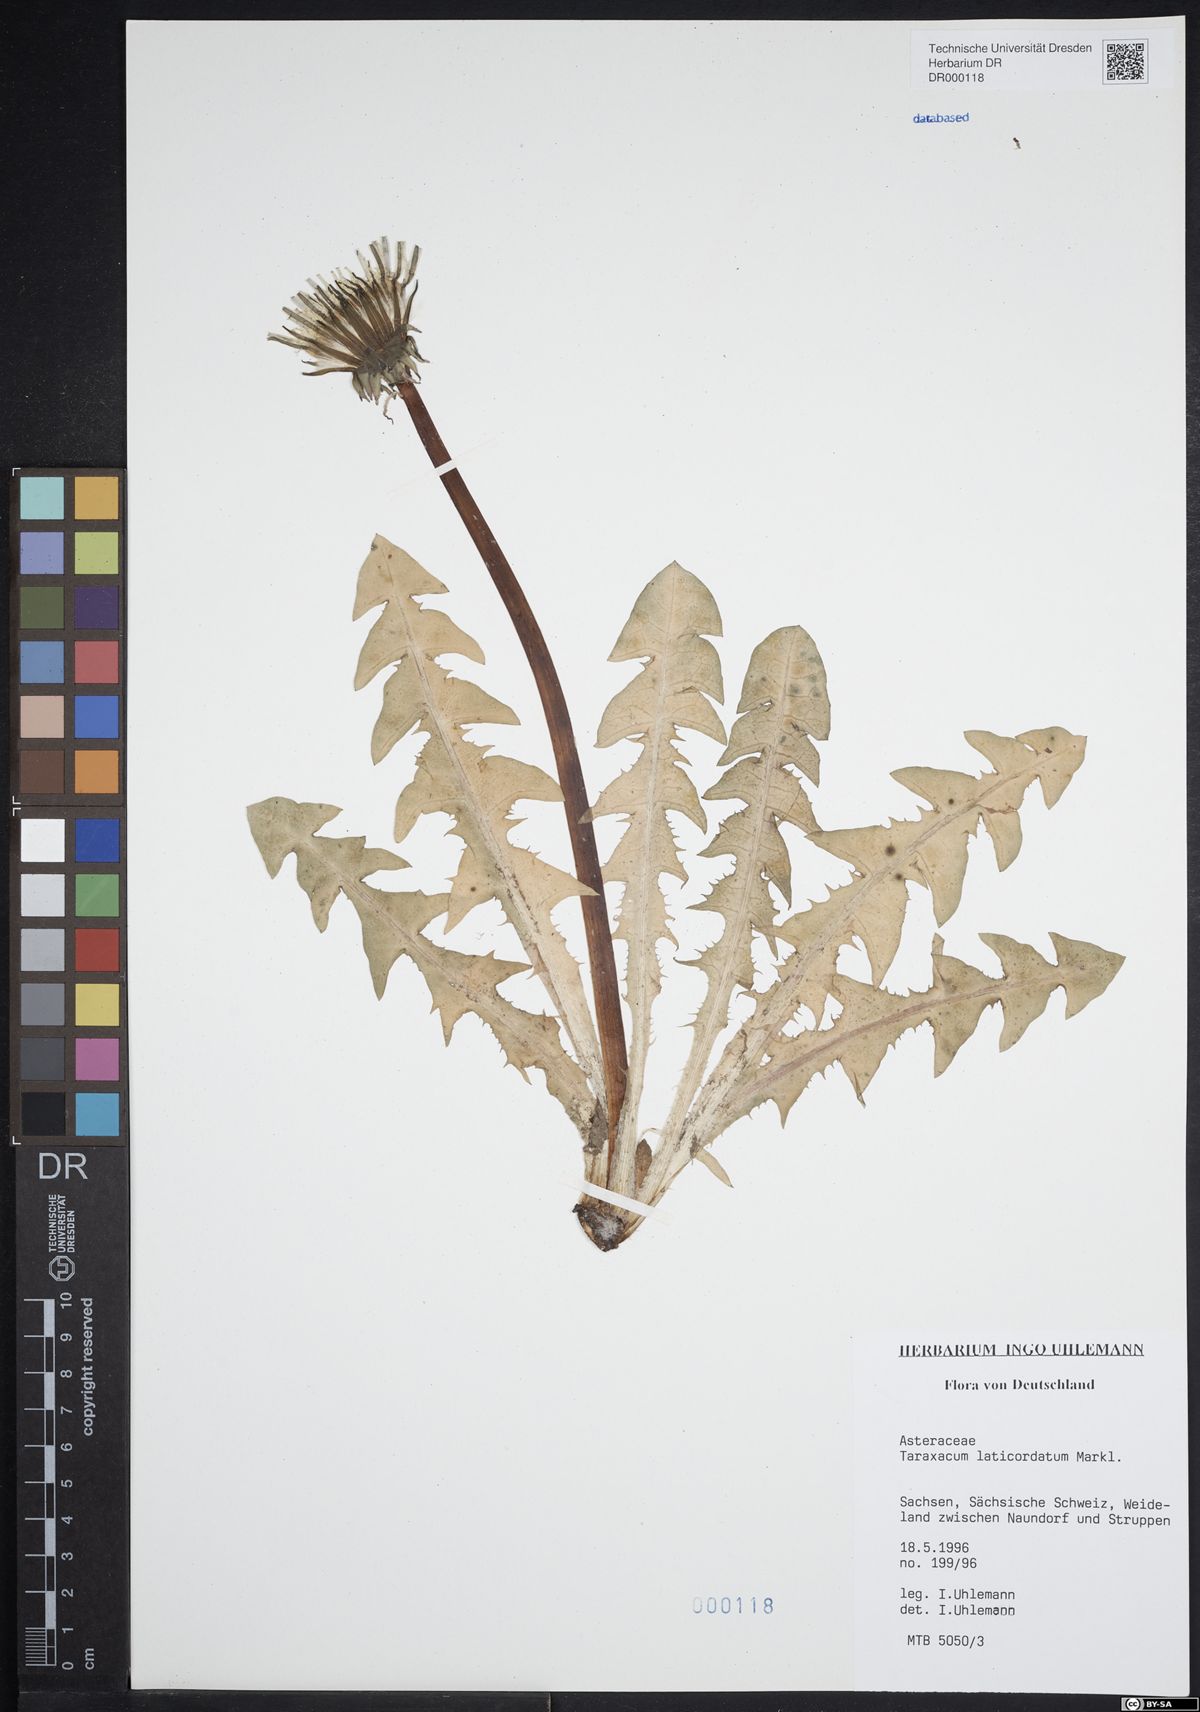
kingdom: Plantae
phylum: Tracheophyta
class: Magnoliopsida
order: Asterales
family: Asteraceae
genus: Taraxacum
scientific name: Taraxacum laticordatum
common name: Decumbent dandelion
